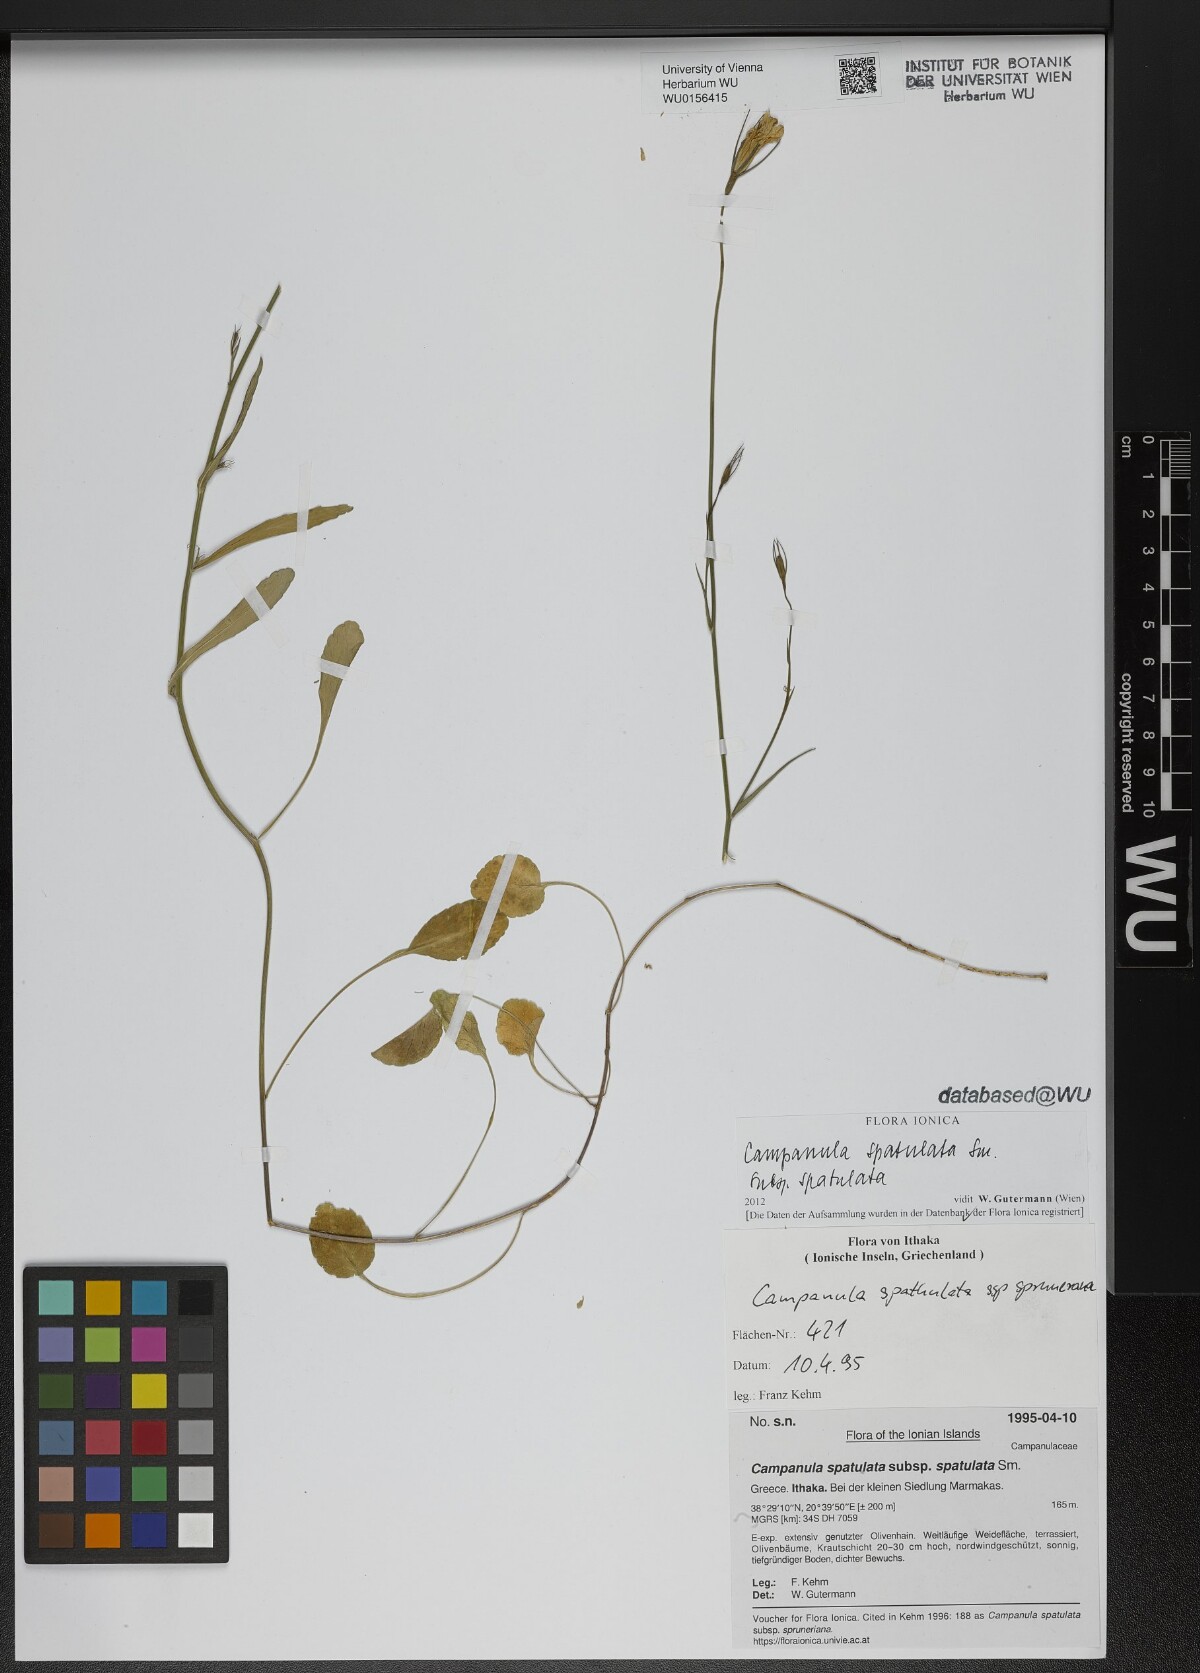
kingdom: Plantae
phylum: Tracheophyta
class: Magnoliopsida
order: Asterales
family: Campanulaceae
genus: Campanula
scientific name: Campanula spatulata
